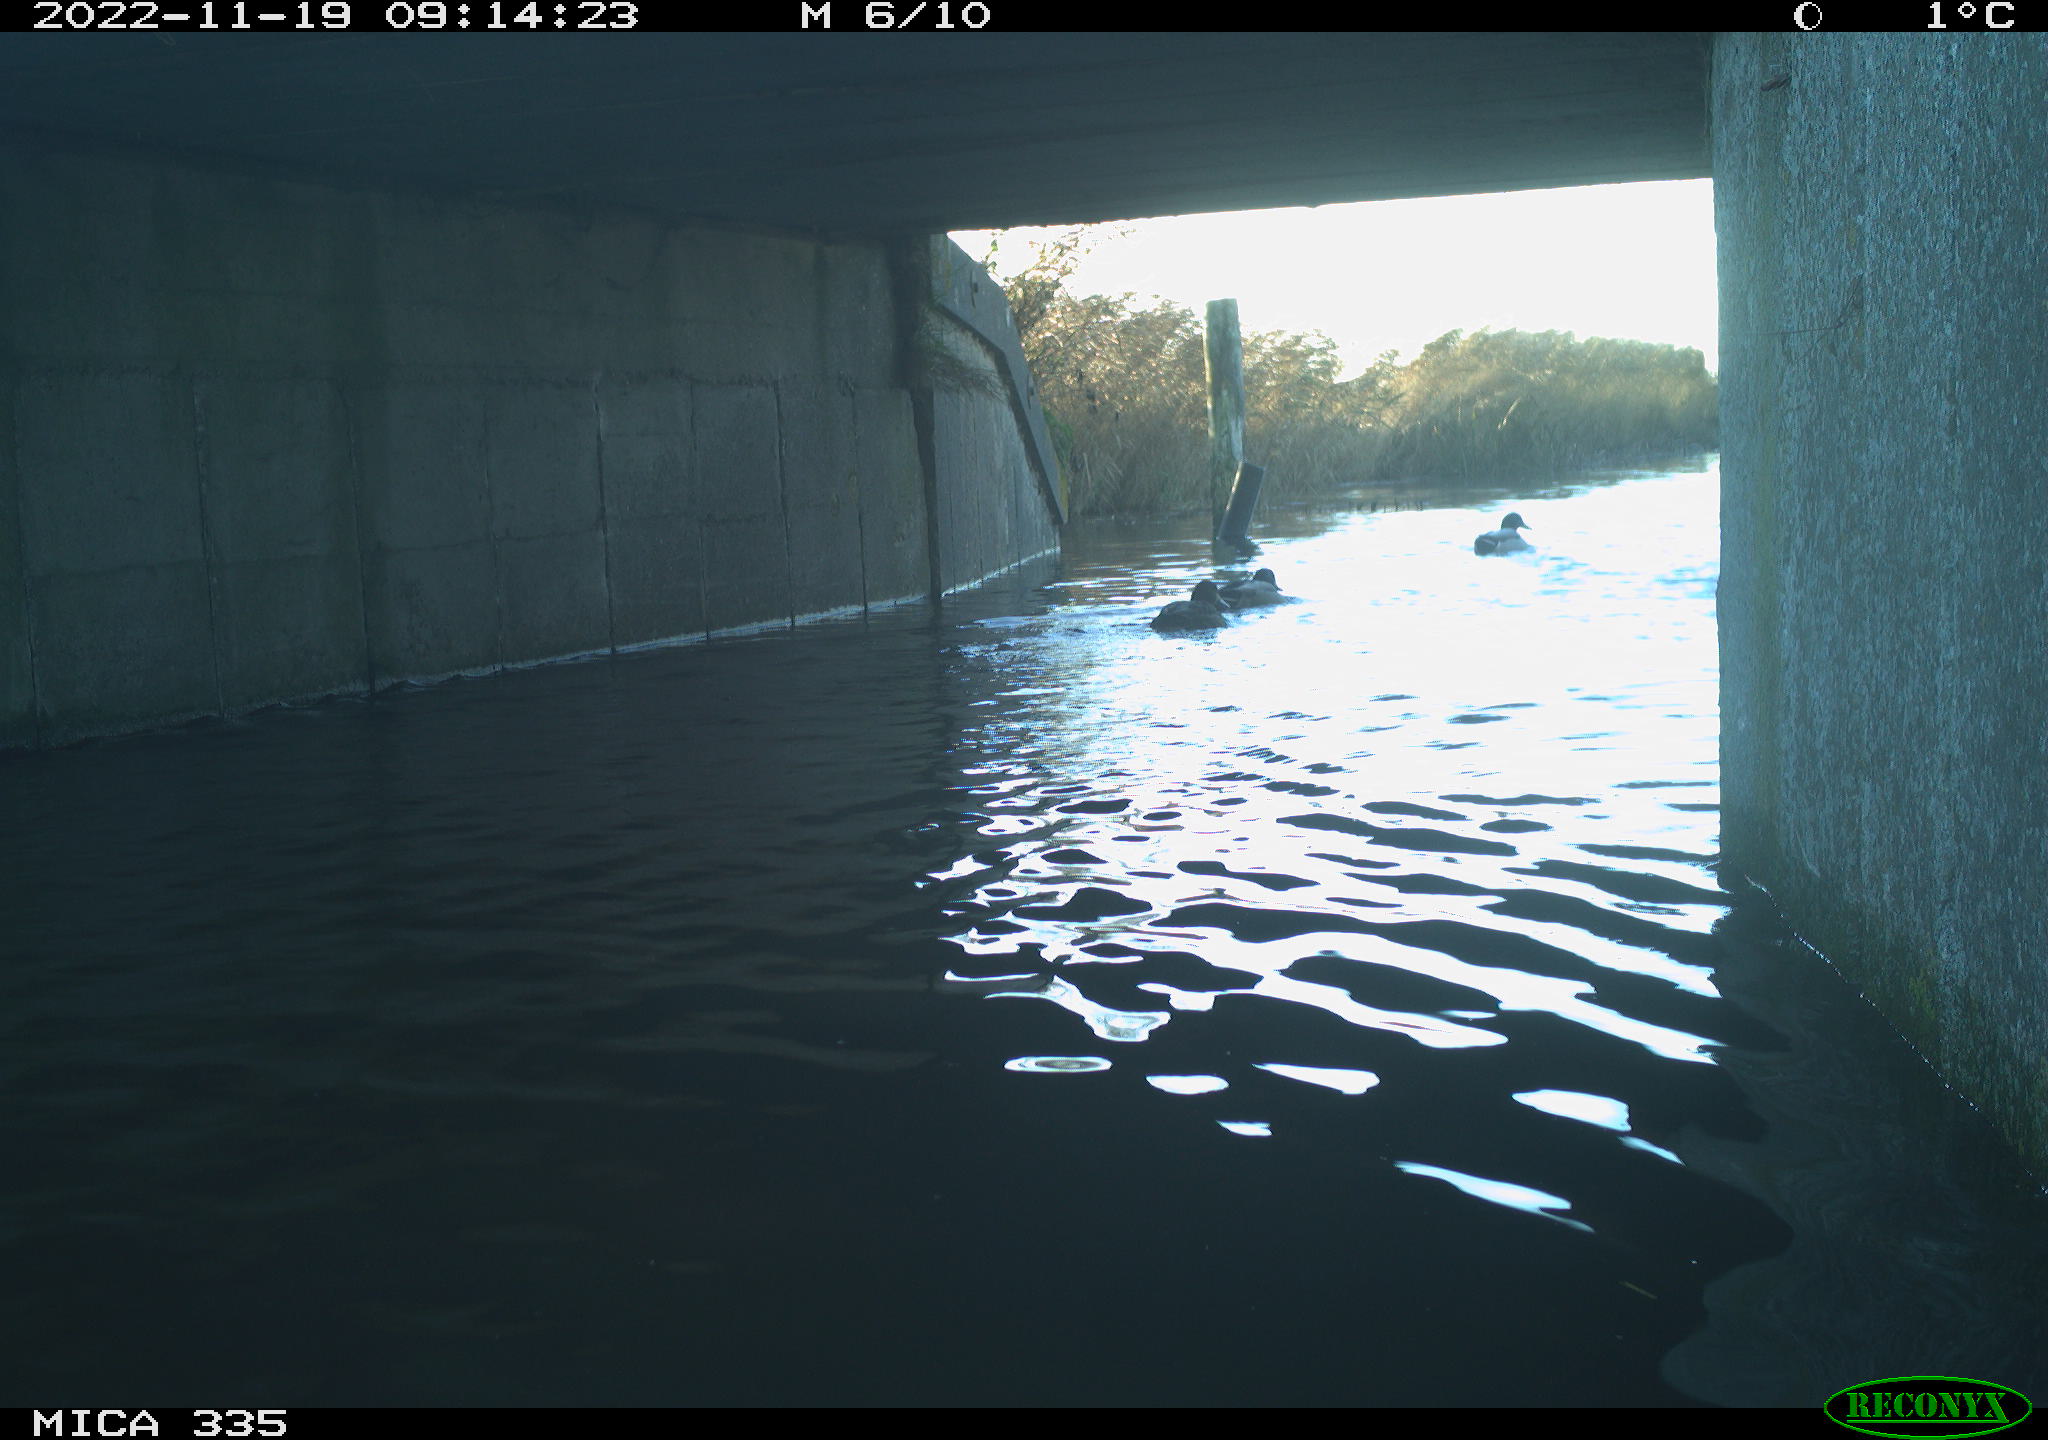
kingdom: Animalia
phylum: Chordata
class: Aves
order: Anseriformes
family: Anatidae
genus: Anas
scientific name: Anas
